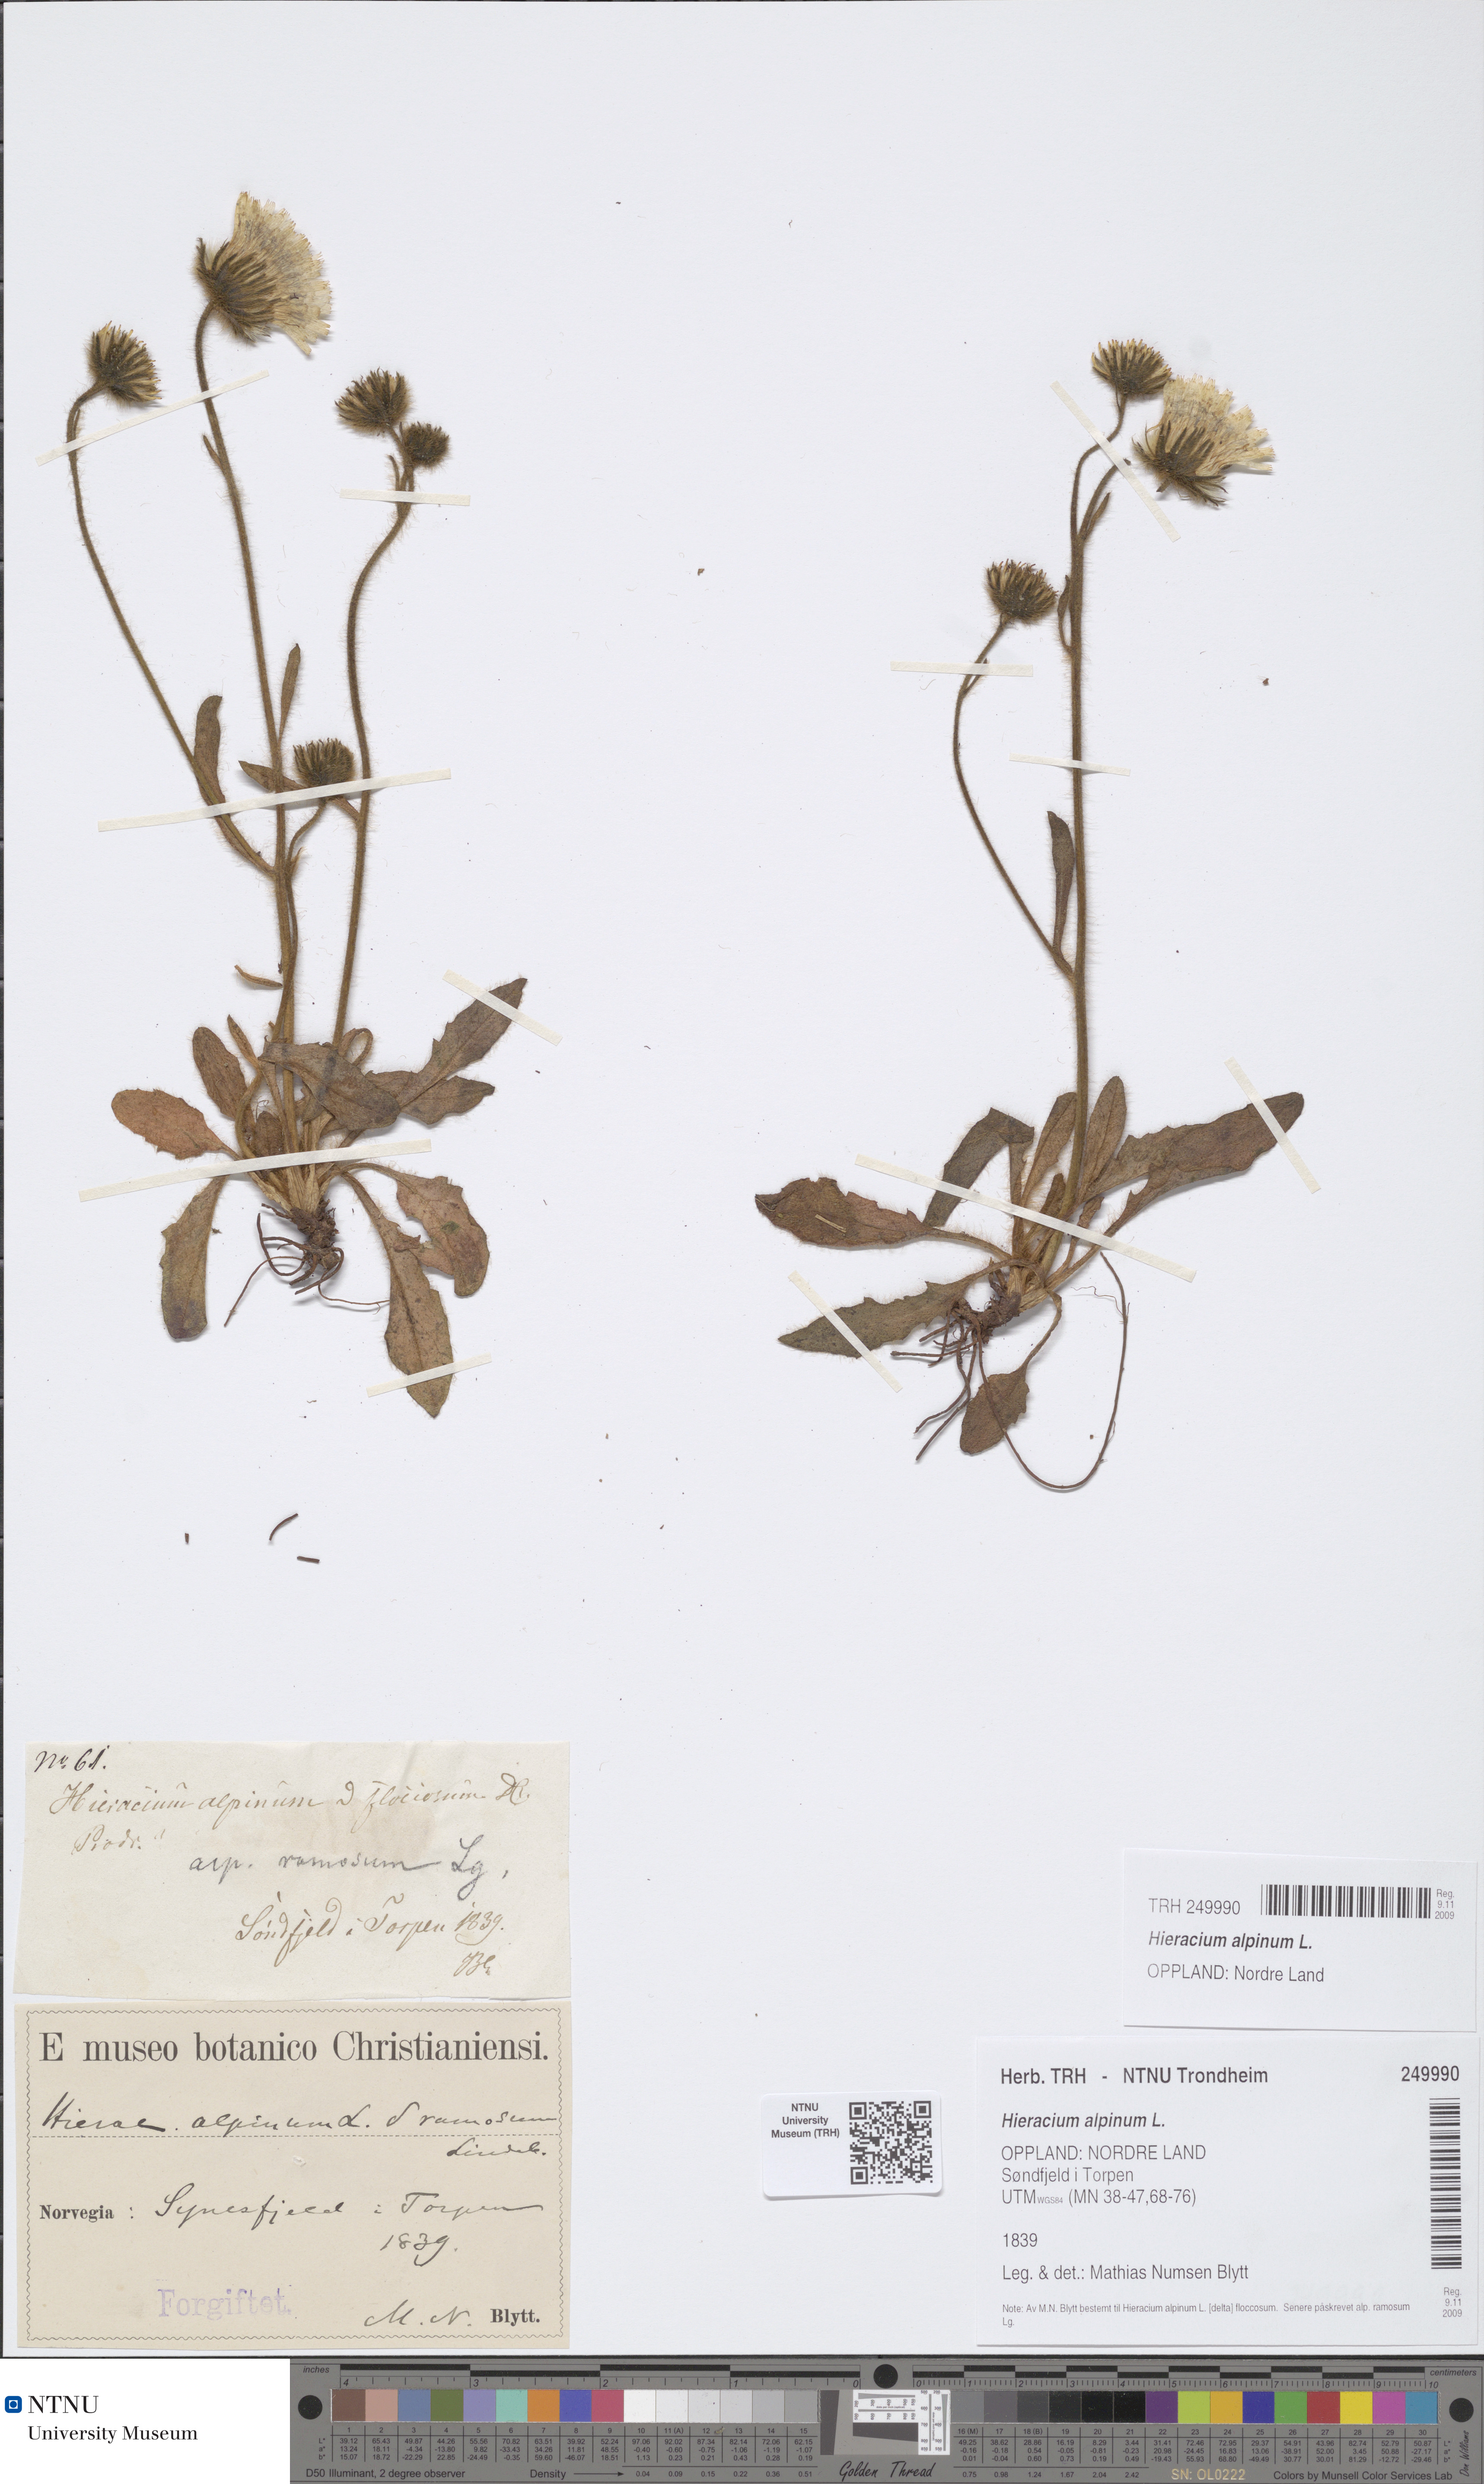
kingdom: Plantae
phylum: Tracheophyta
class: Magnoliopsida
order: Asterales
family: Asteraceae
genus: Hieracium
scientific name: Hieracium alpinum
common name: Alpine hawkweed
